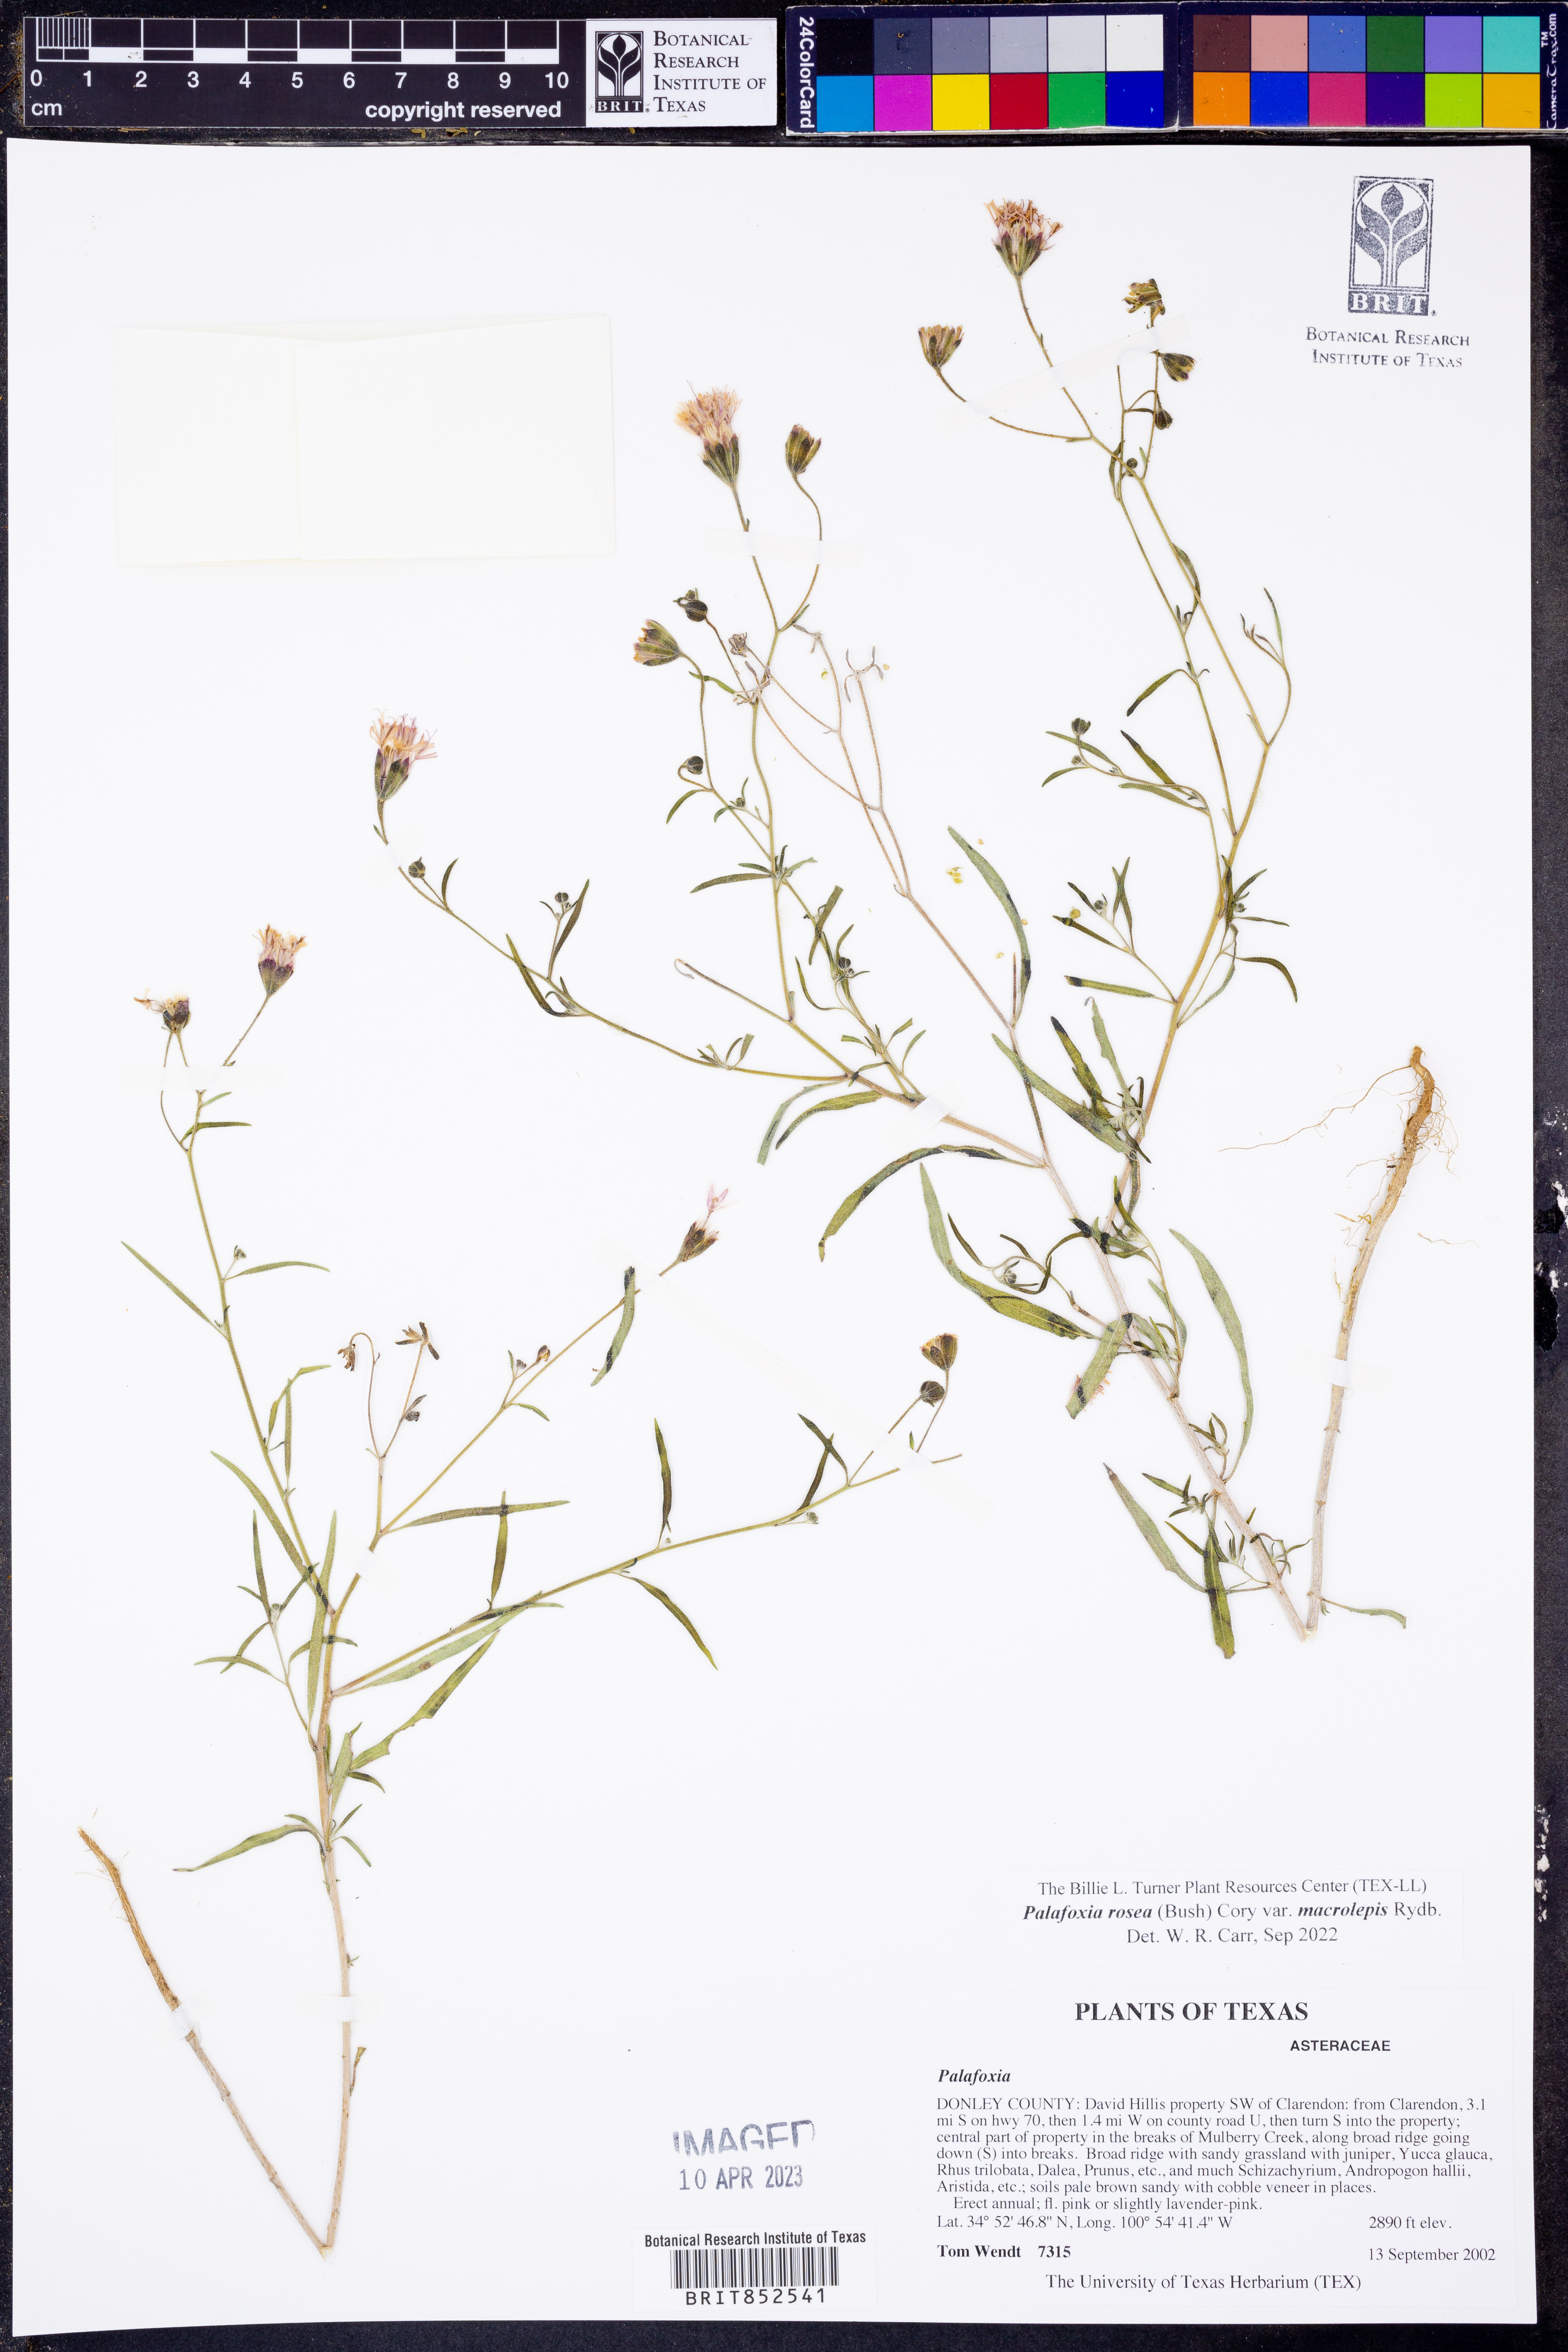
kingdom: Plantae
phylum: Tracheophyta
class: Magnoliopsida
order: Asterales
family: Asteraceae
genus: Palafoxia
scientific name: Palafoxia rosea
